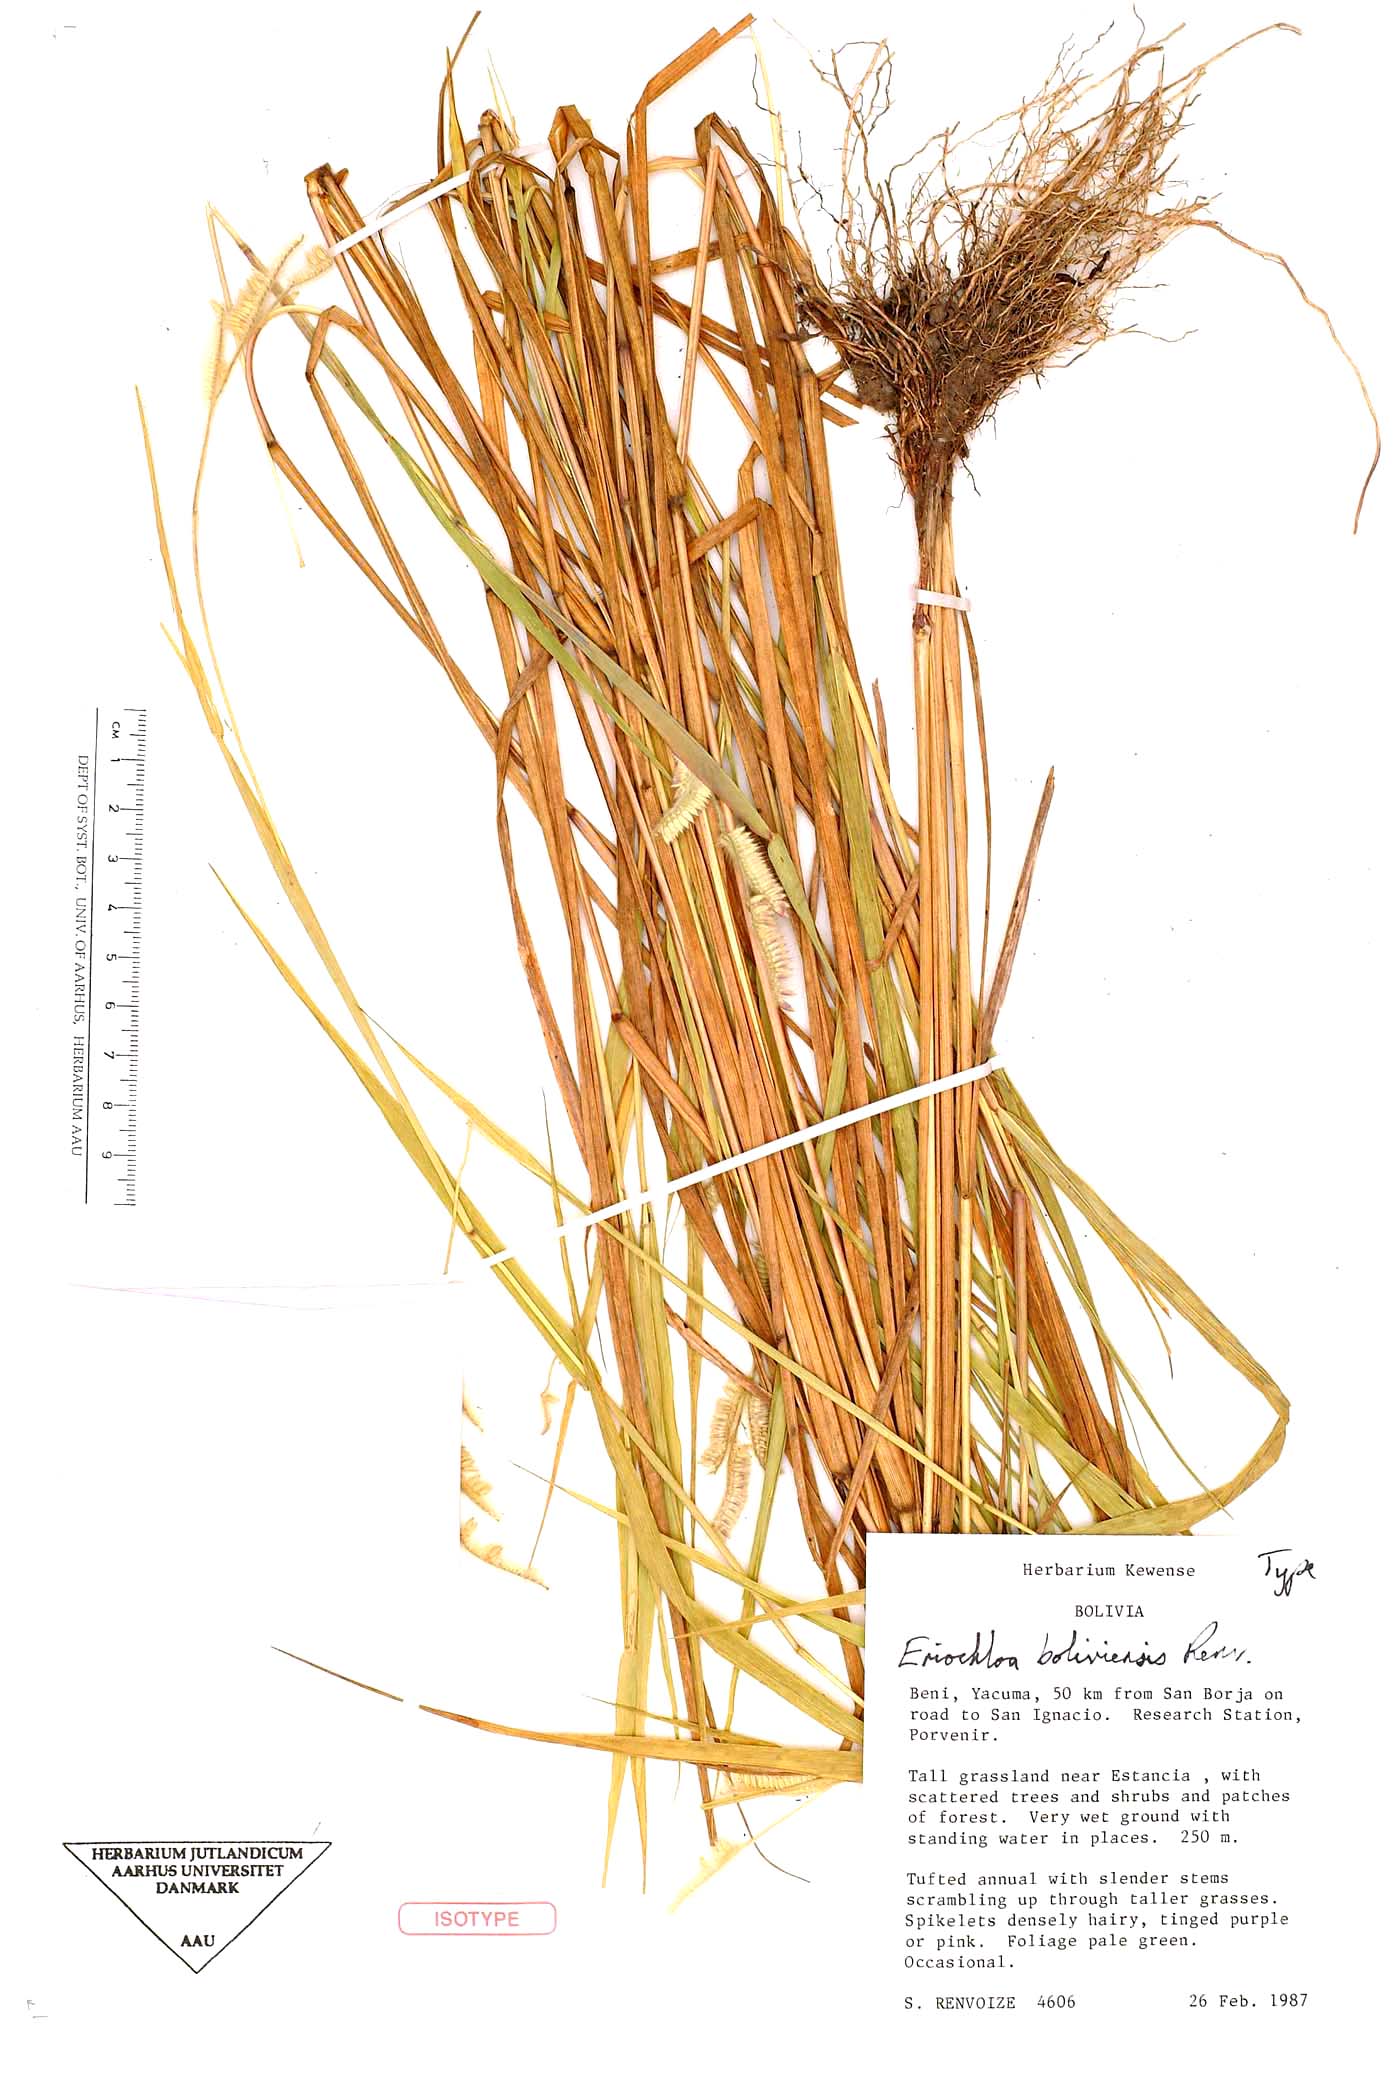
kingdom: Plantae
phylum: Tracheophyta
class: Liliopsida
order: Poales
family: Poaceae
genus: Eriochloa
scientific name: Eriochloa boliviensis
